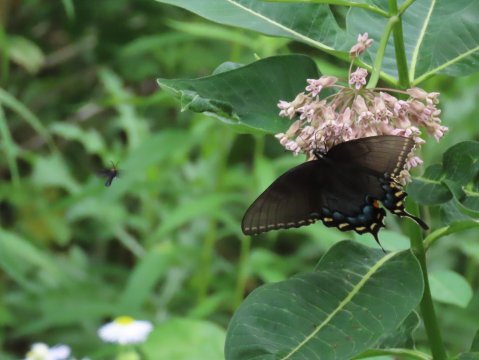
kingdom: Animalia
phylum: Arthropoda
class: Insecta
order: Lepidoptera
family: Papilionidae
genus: Pterourus
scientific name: Pterourus glaucus
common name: Eastern Tiger Swallowtail
